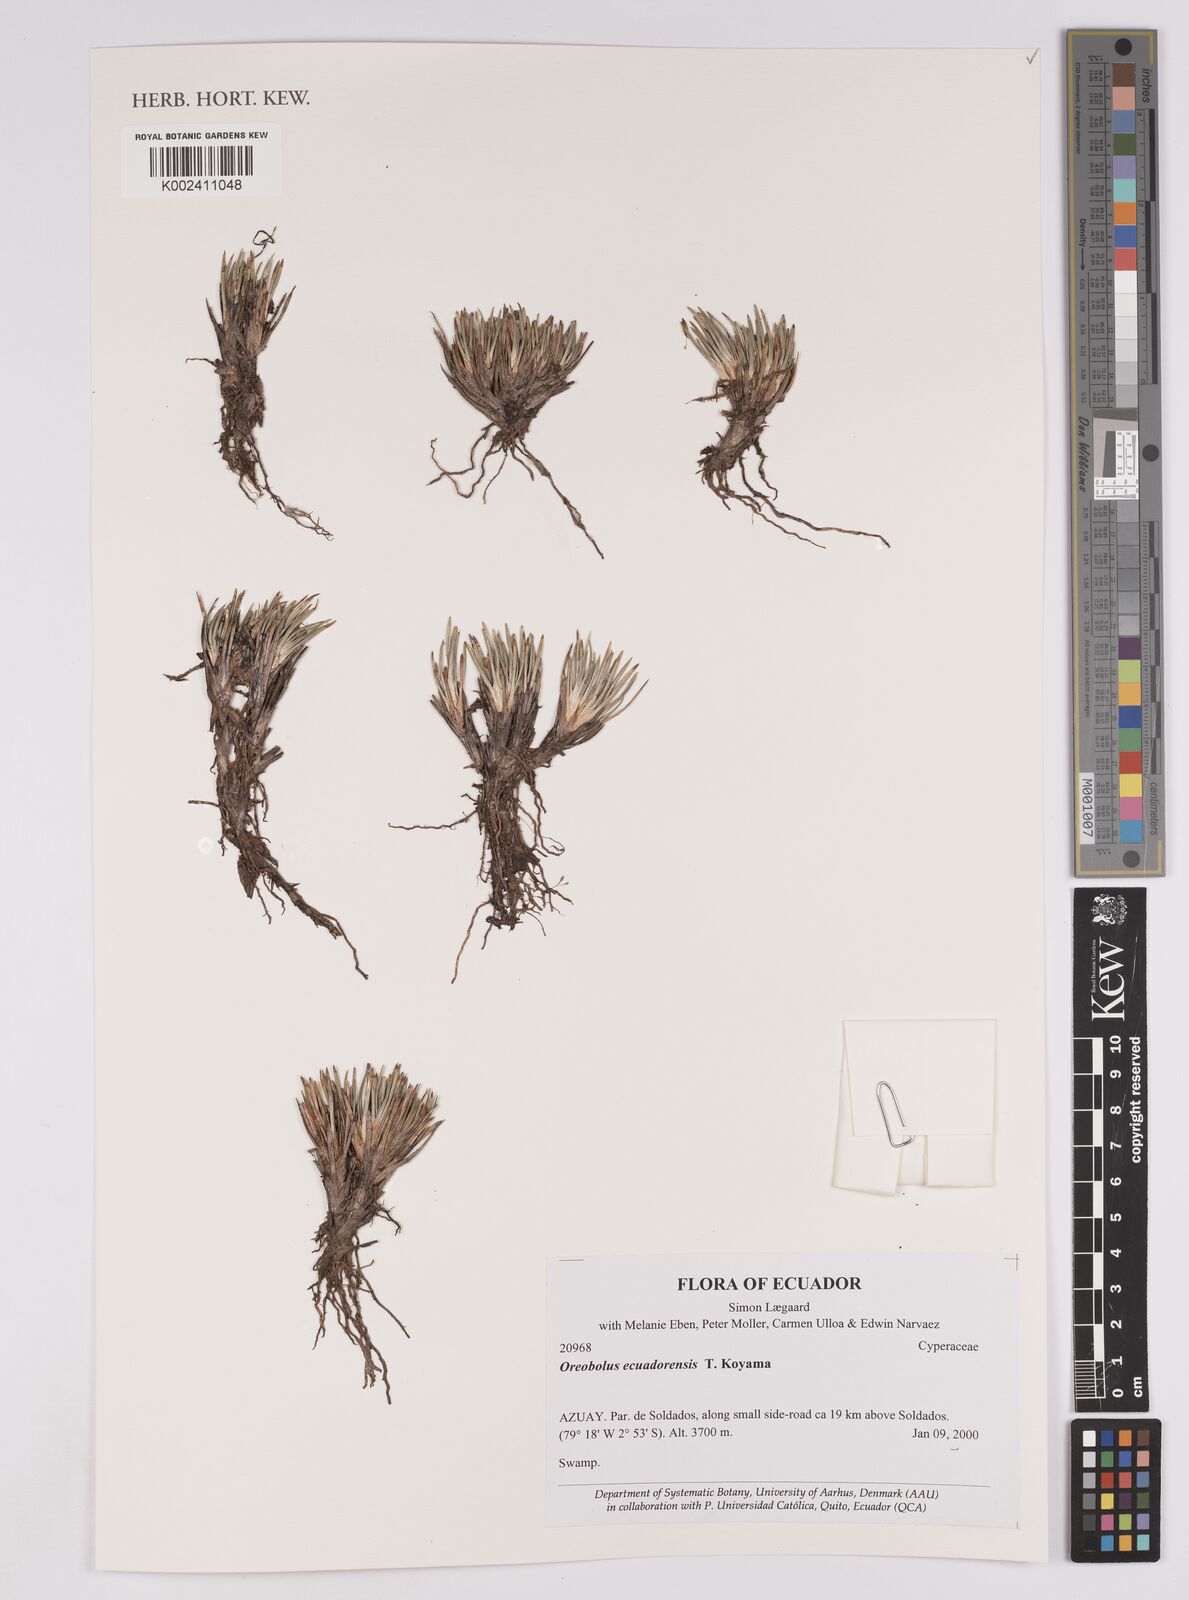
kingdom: Plantae
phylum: Tracheophyta
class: Liliopsida
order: Poales
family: Cyperaceae
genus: Oreobolus
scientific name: Oreobolus ecuadorensis
